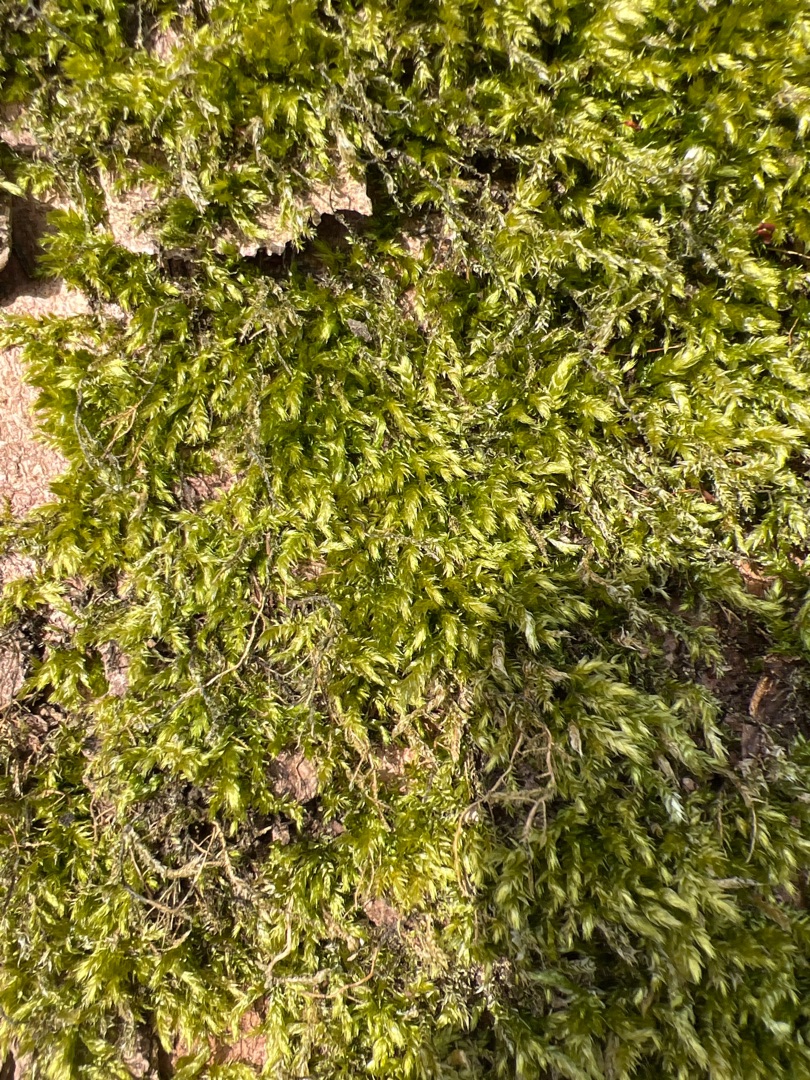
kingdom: Plantae
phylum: Bryophyta
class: Bryopsida
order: Hypnales
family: Brachytheciaceae
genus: Brachythecium
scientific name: Brachythecium rutabulum
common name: Almindelig kortkapsel
